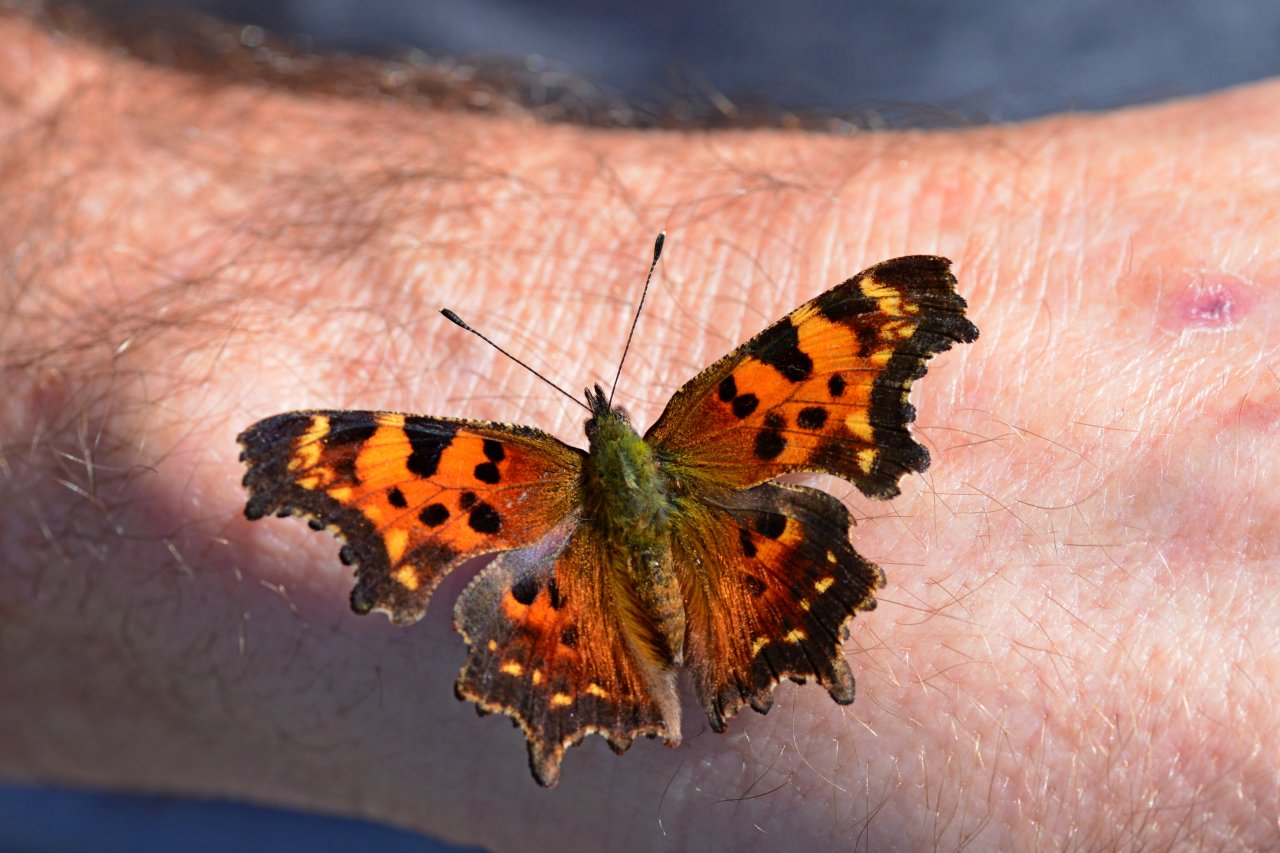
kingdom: Animalia
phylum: Arthropoda
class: Insecta
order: Lepidoptera
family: Nymphalidae
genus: Polygonia
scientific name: Polygonia faunus
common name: Green Comma
